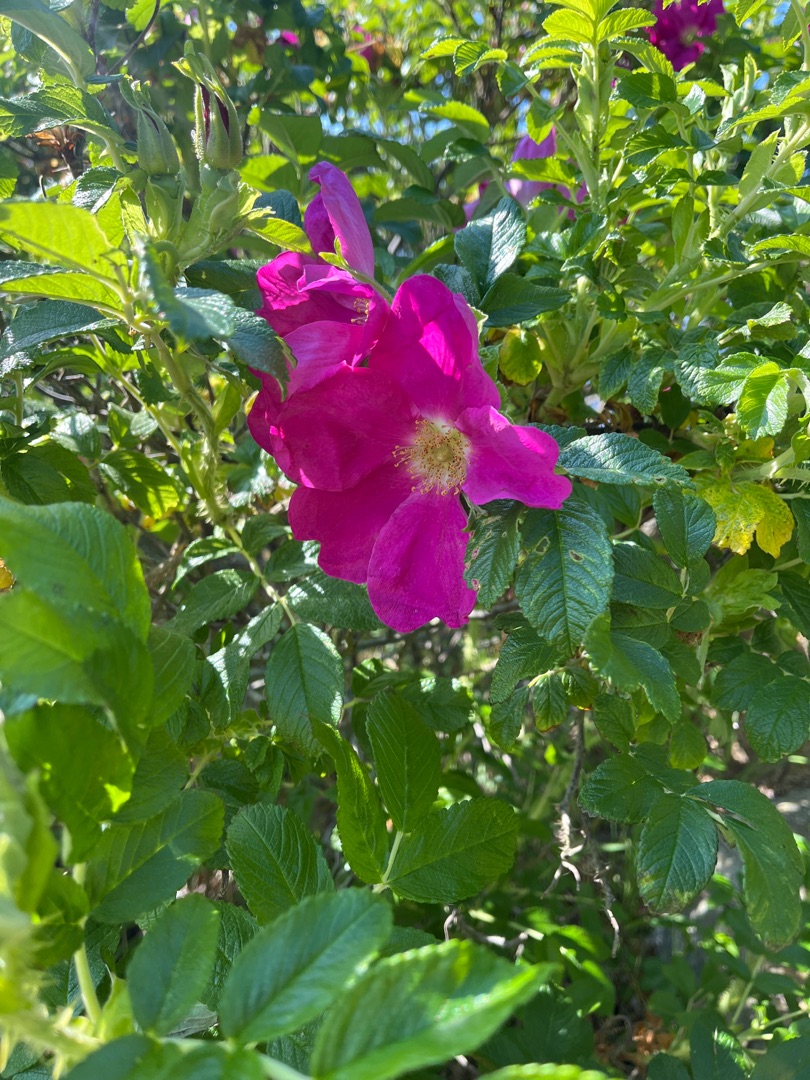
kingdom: Plantae
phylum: Tracheophyta
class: Magnoliopsida
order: Rosales
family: Rosaceae
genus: Rosa
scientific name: Rosa rugosa
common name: Rynket rose
